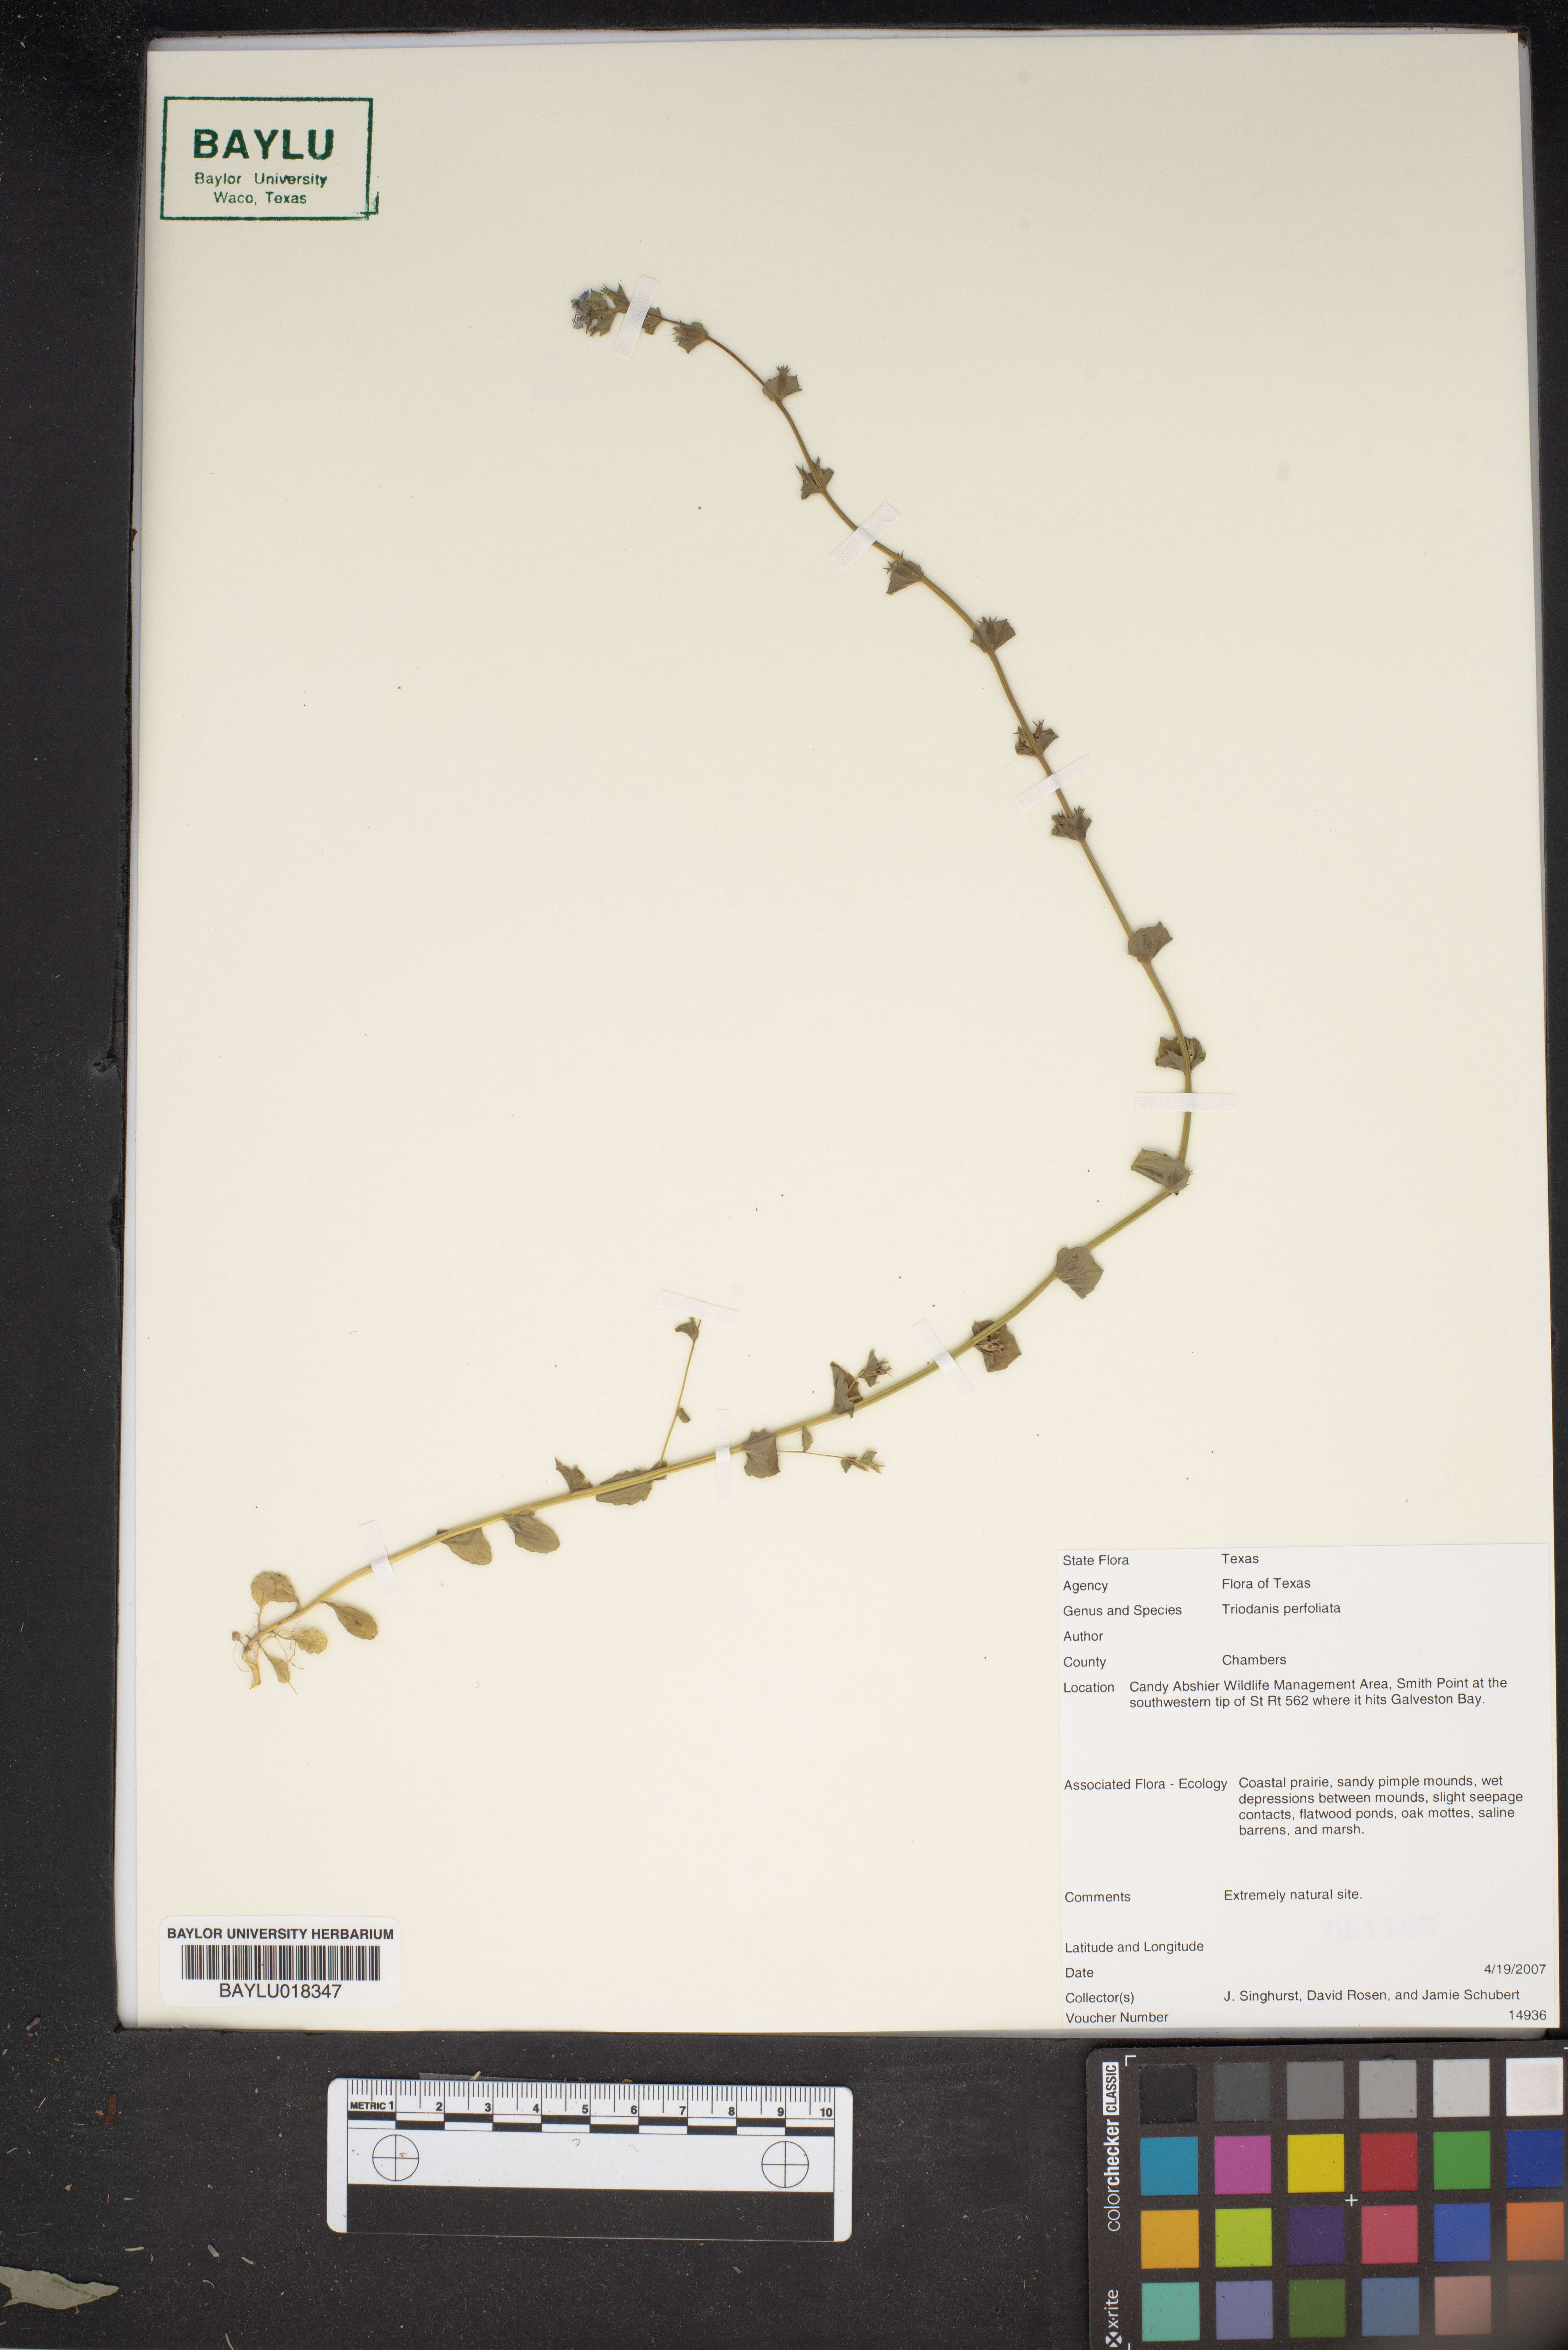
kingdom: Plantae
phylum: Tracheophyta
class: Magnoliopsida
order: Asterales
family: Campanulaceae
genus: Triodanis
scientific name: Triodanis perfoliata
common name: Clasping venus' looking-glass
